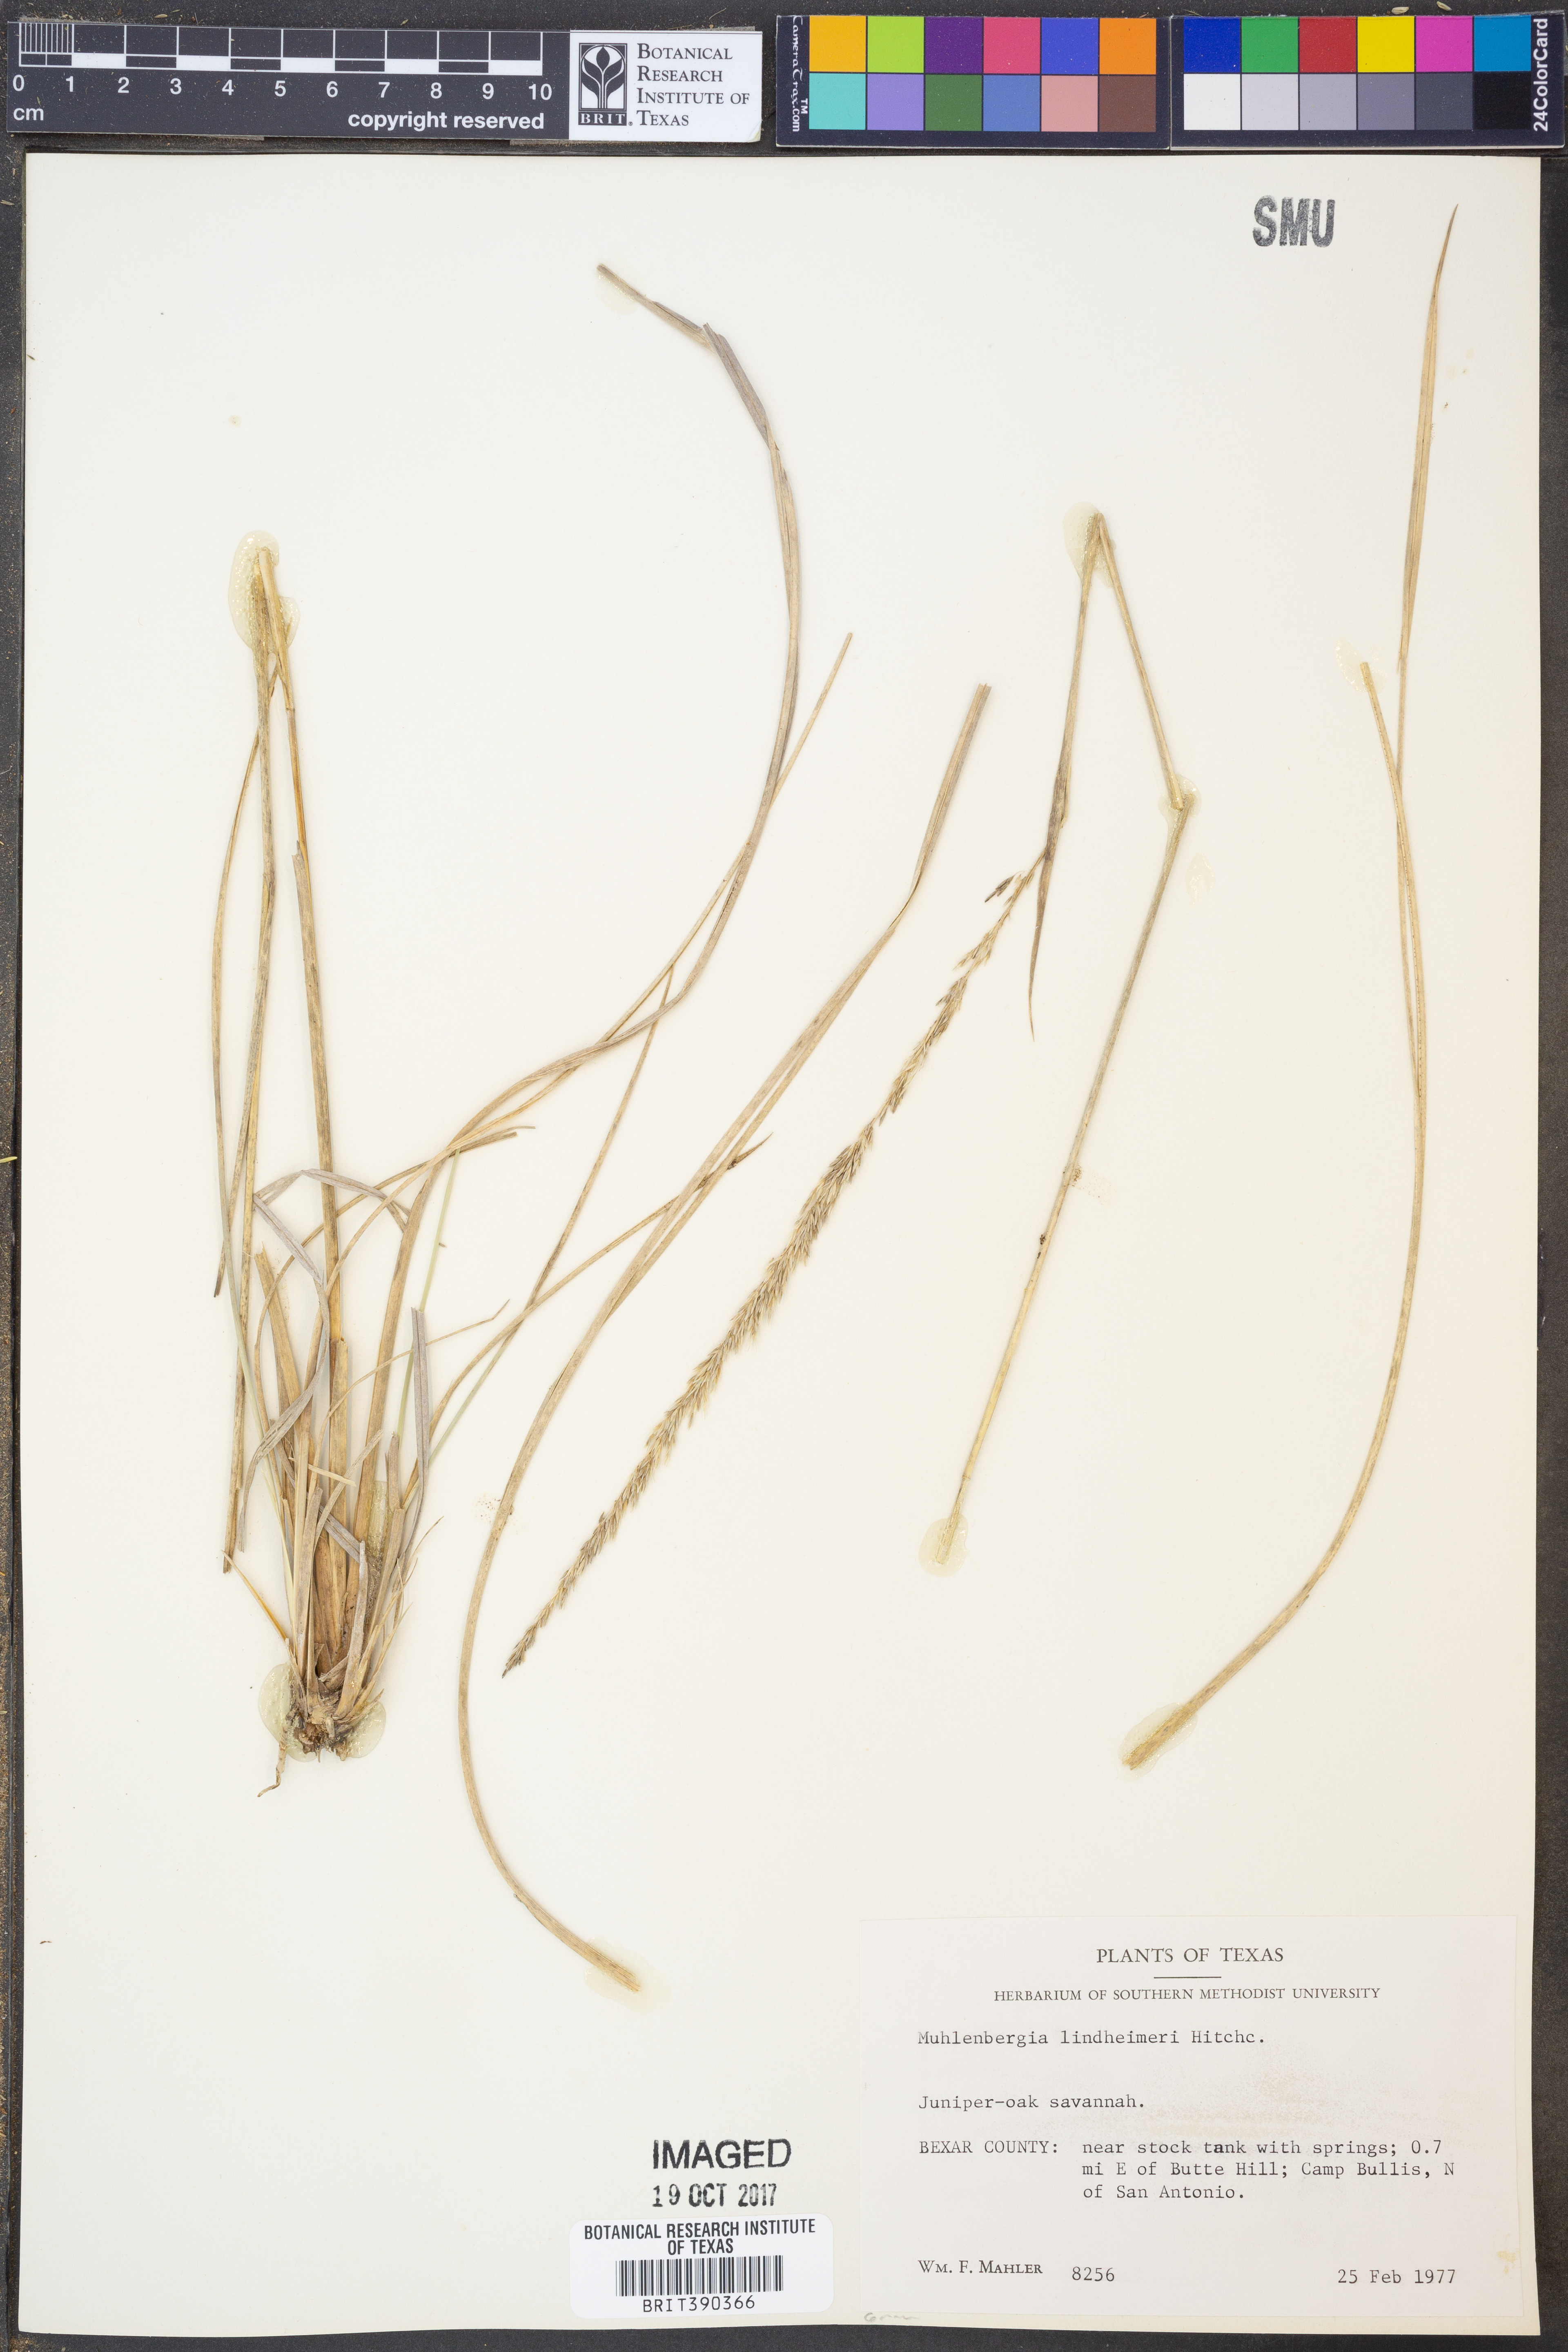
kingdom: Plantae
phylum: Tracheophyta
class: Liliopsida
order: Poales
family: Poaceae
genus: Muhlenbergia
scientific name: Muhlenbergia lindheimeri
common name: Lindheimer's muhly
